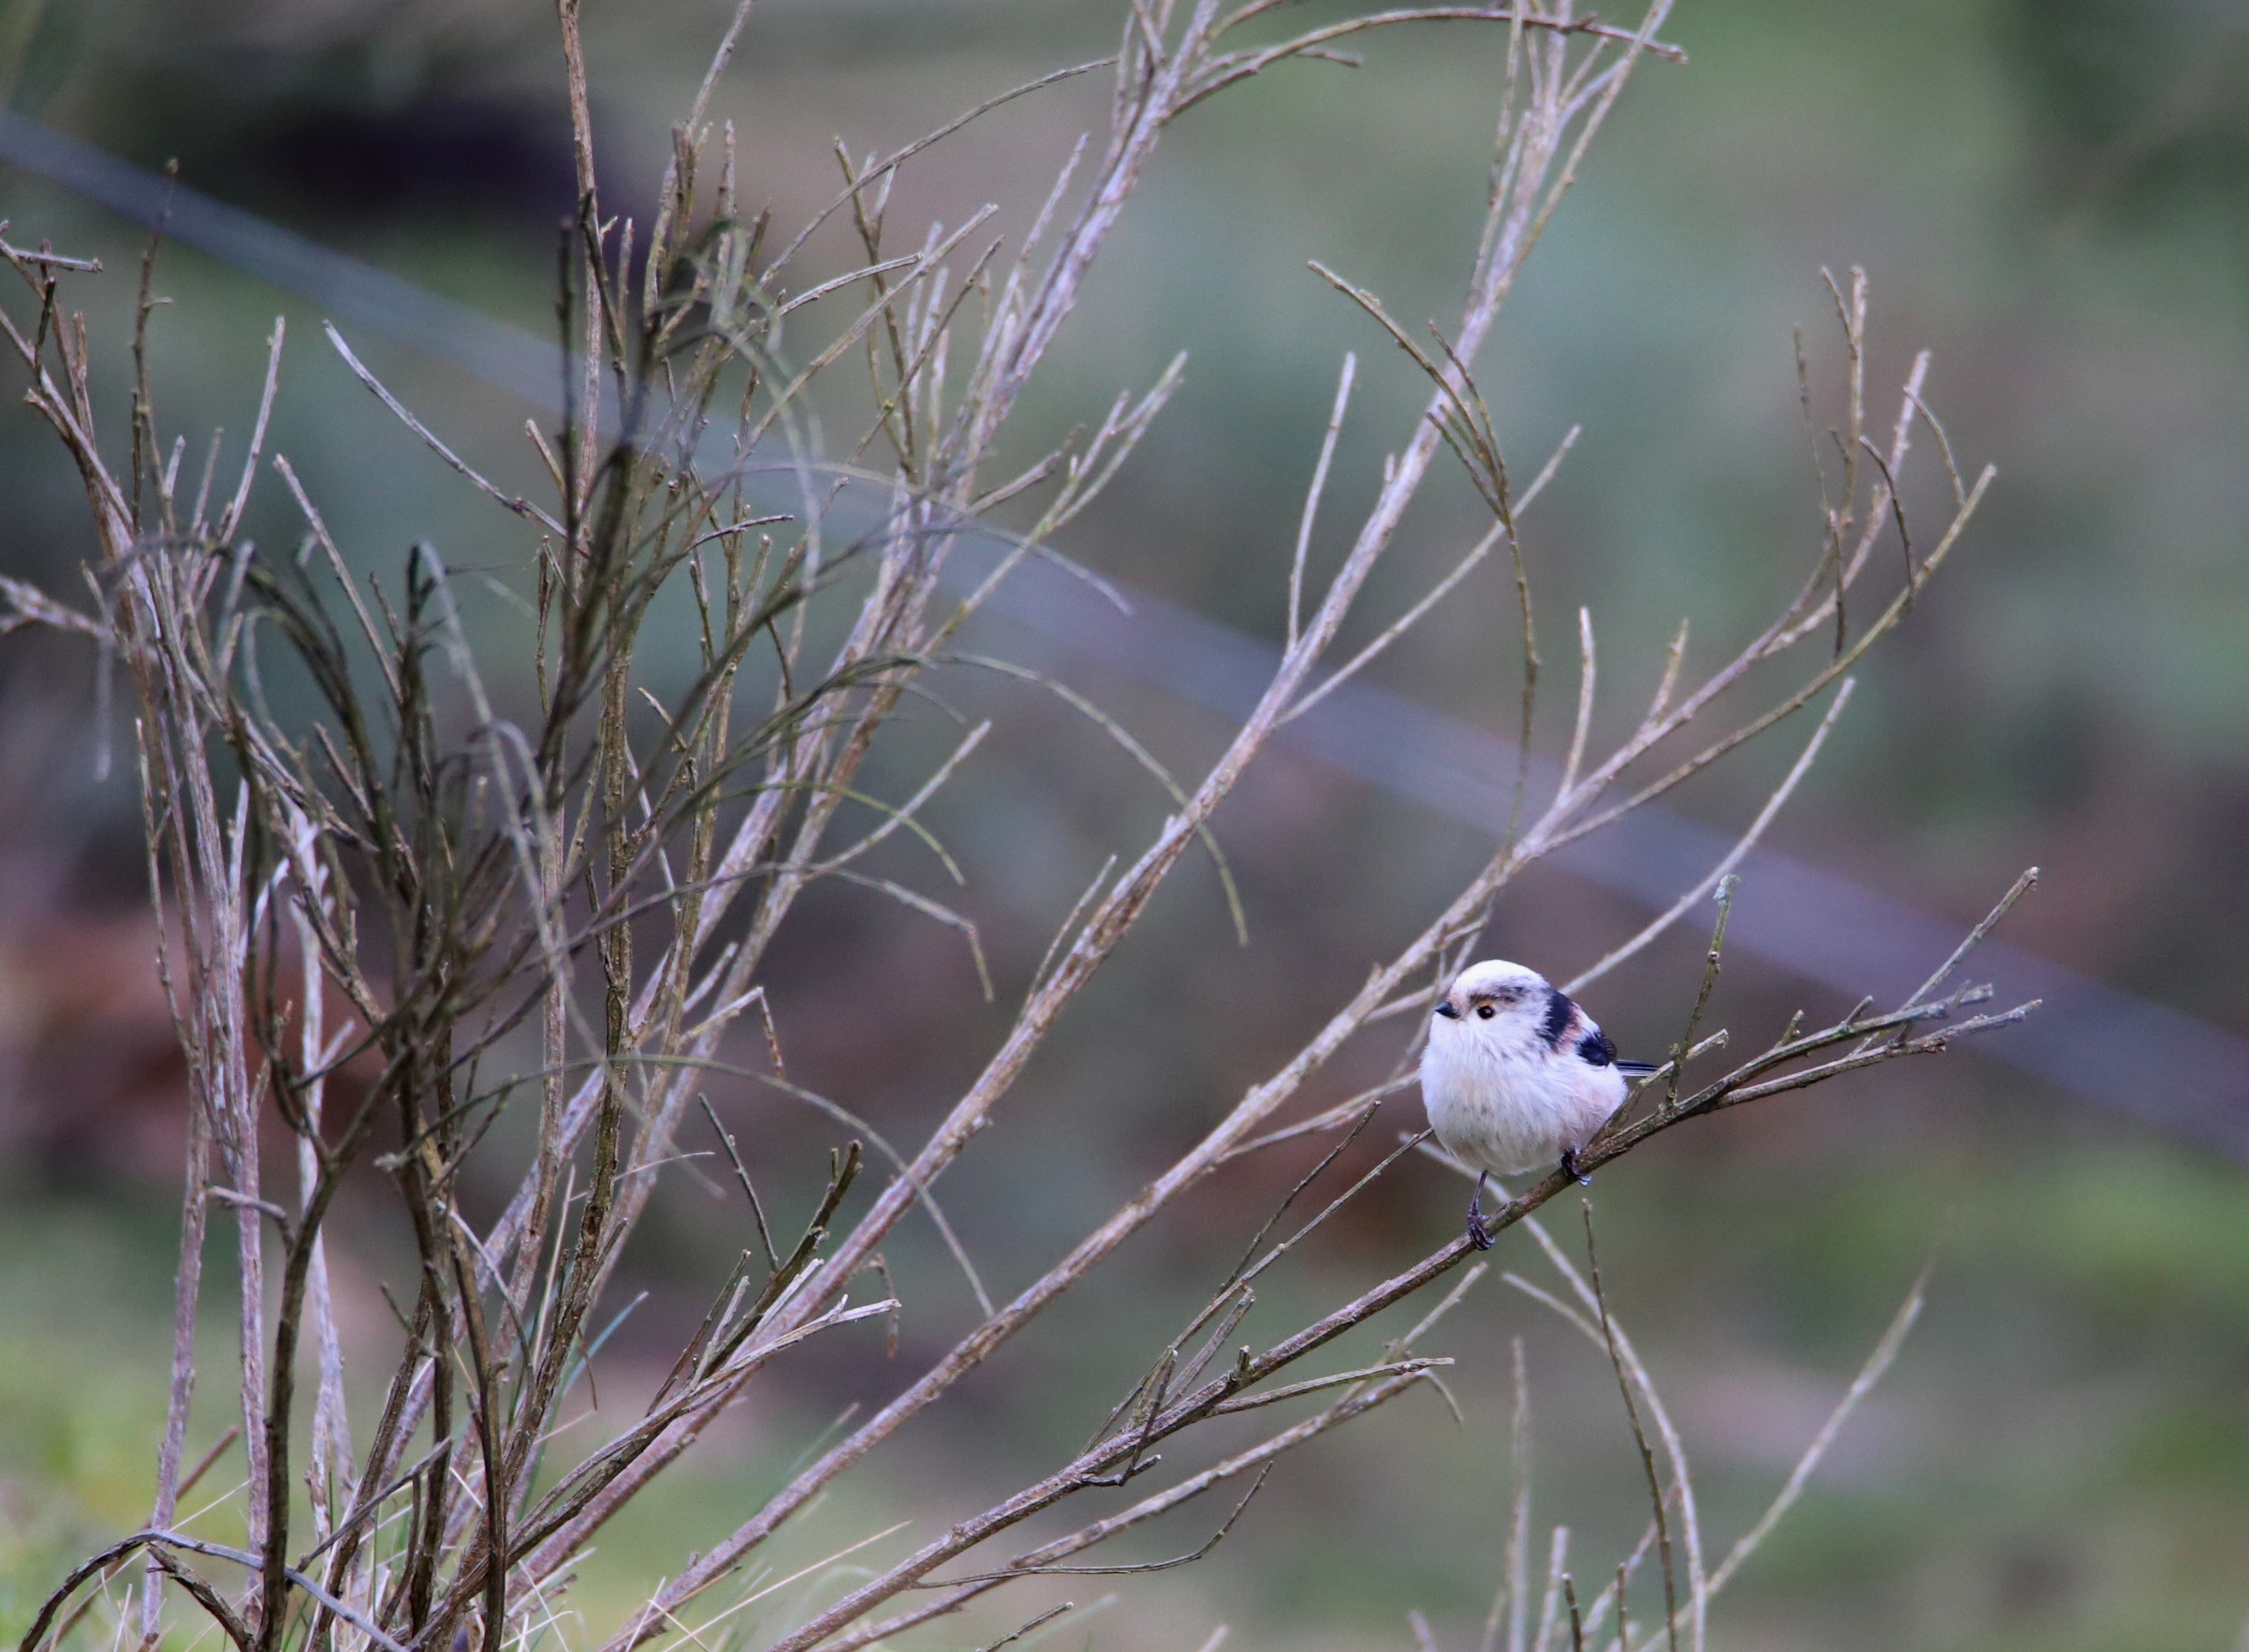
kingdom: Animalia
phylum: Chordata
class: Aves
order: Passeriformes
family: Aegithalidae
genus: Aegithalos
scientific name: Aegithalos caudatus
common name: Halemejse
